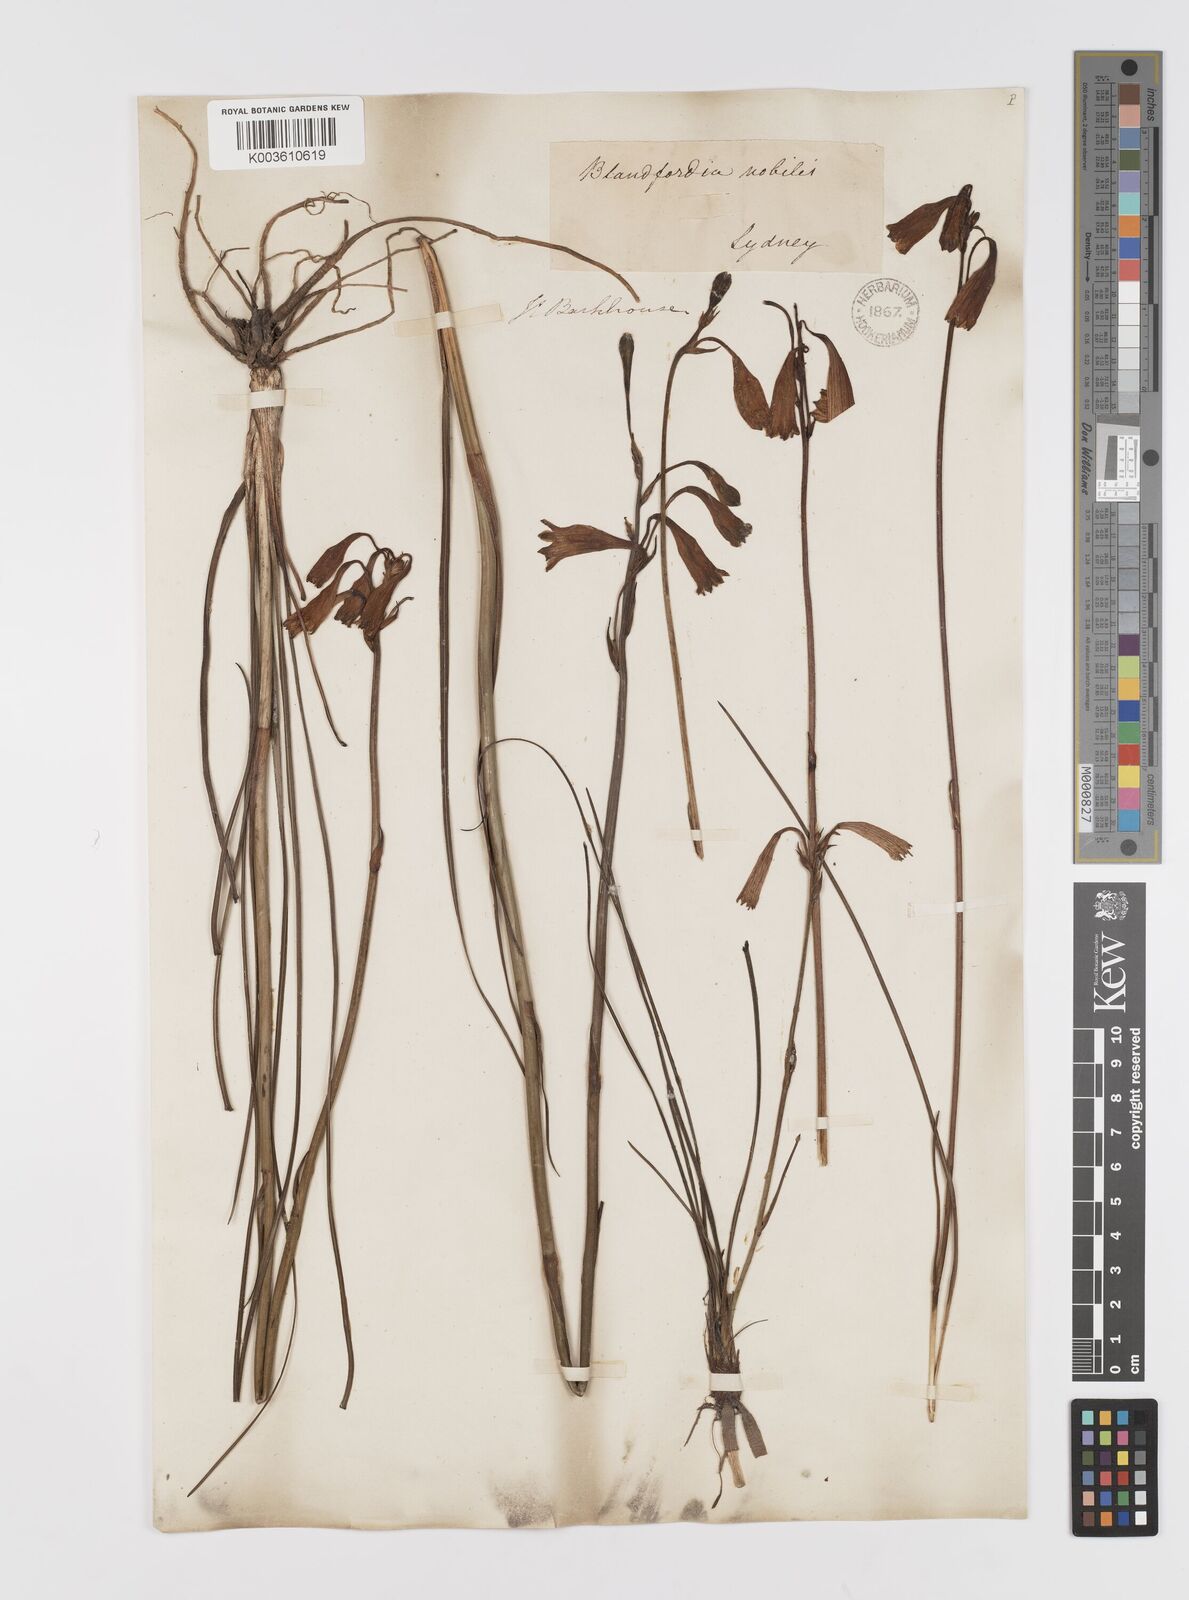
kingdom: Plantae
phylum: Tracheophyta
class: Liliopsida
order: Asparagales
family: Blandfordiaceae
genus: Blandfordia
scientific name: Blandfordia nobilis
